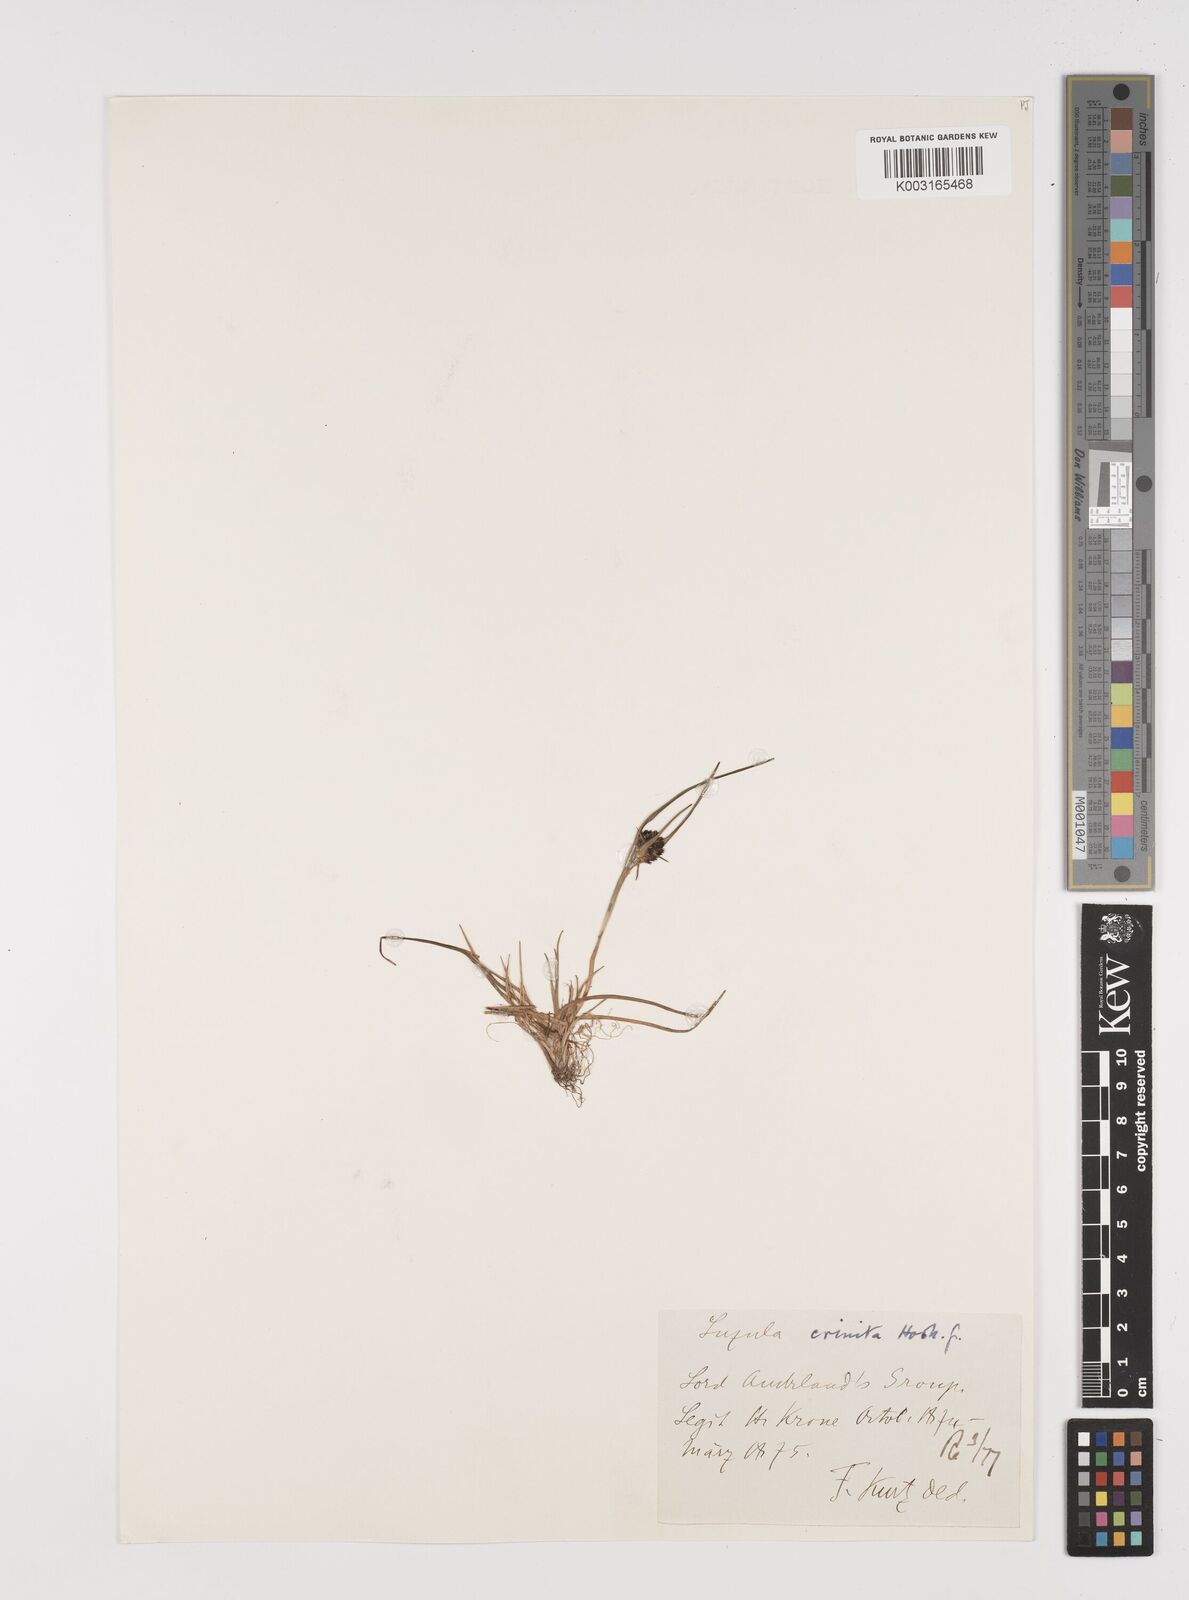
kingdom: Plantae
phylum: Tracheophyta
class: Liliopsida
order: Poales
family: Juncaceae
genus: Luzula
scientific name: Luzula crinita
